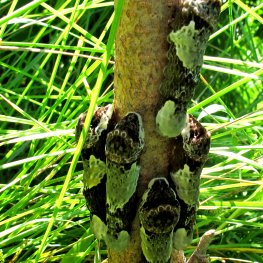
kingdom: Animalia
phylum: Arthropoda
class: Insecta
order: Lepidoptera
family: Papilionidae
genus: Papilio
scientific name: Papilio cresphontes
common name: Eastern Giant Swallowtail
